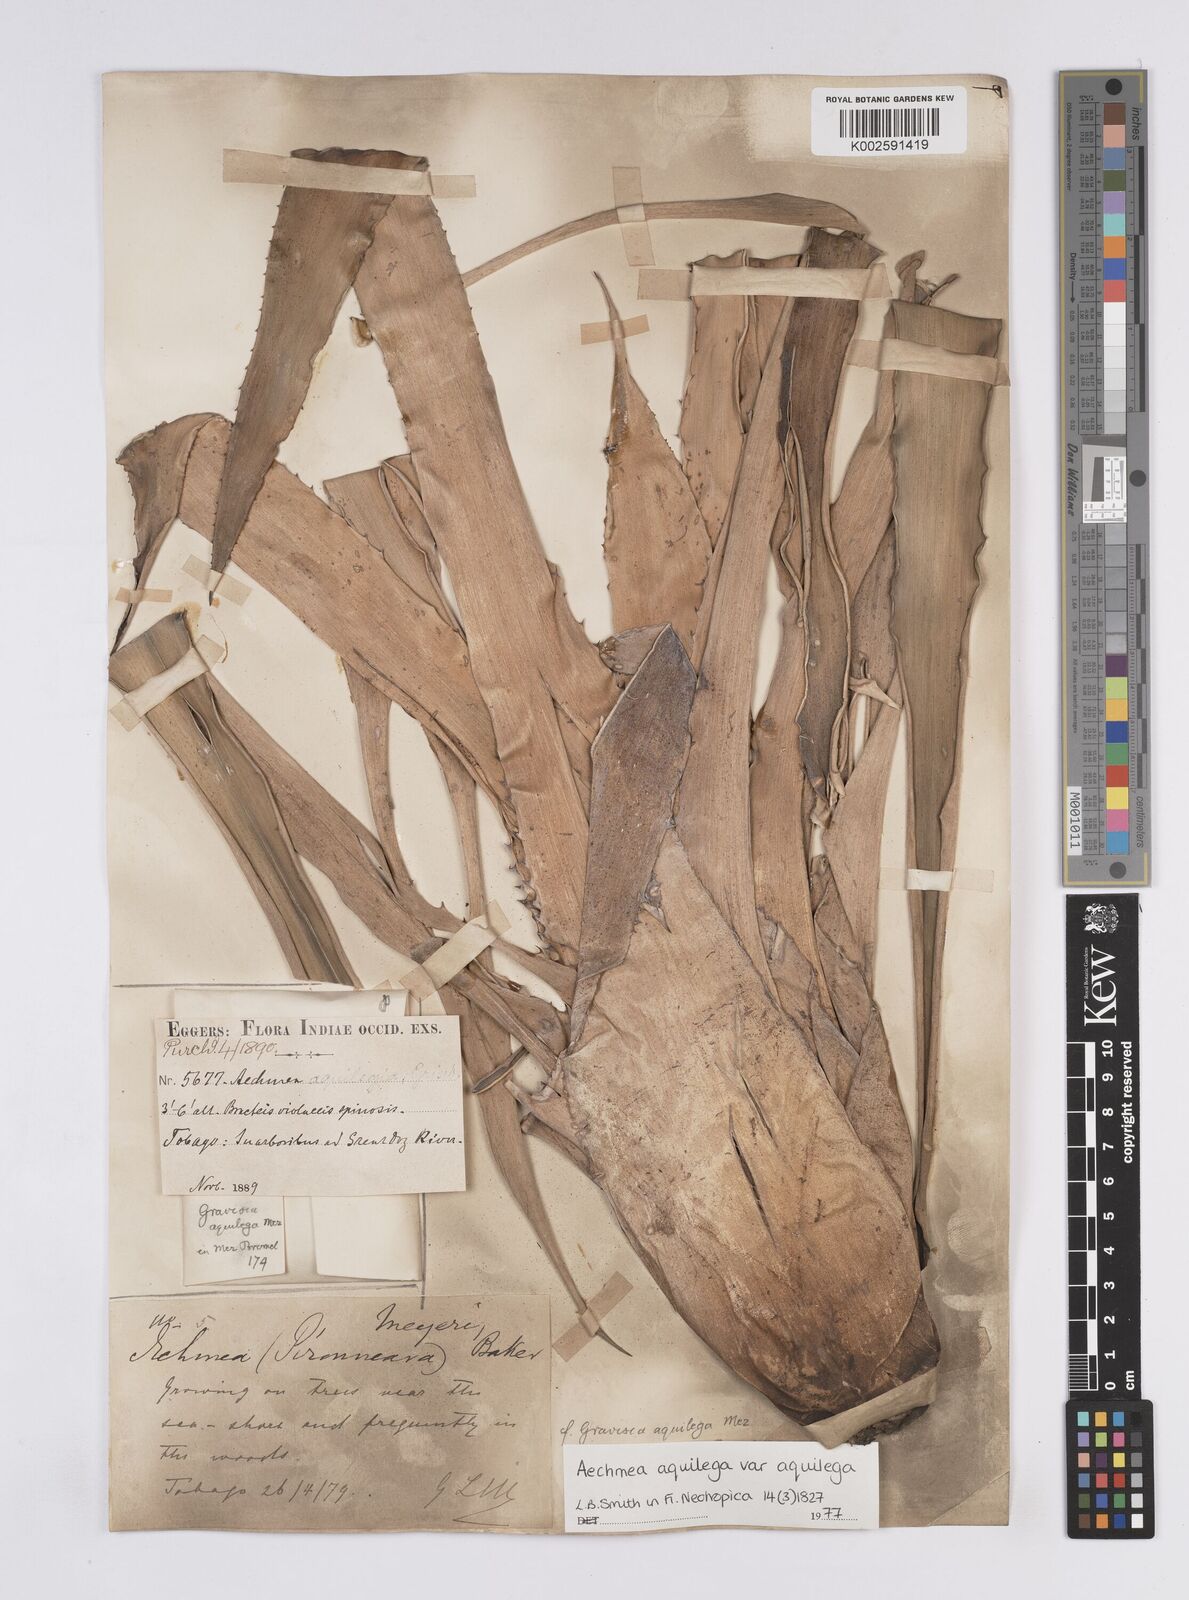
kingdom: Plantae
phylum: Tracheophyta
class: Liliopsida
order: Poales
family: Bromeliaceae
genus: Aechmea
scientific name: Aechmea aquilega
